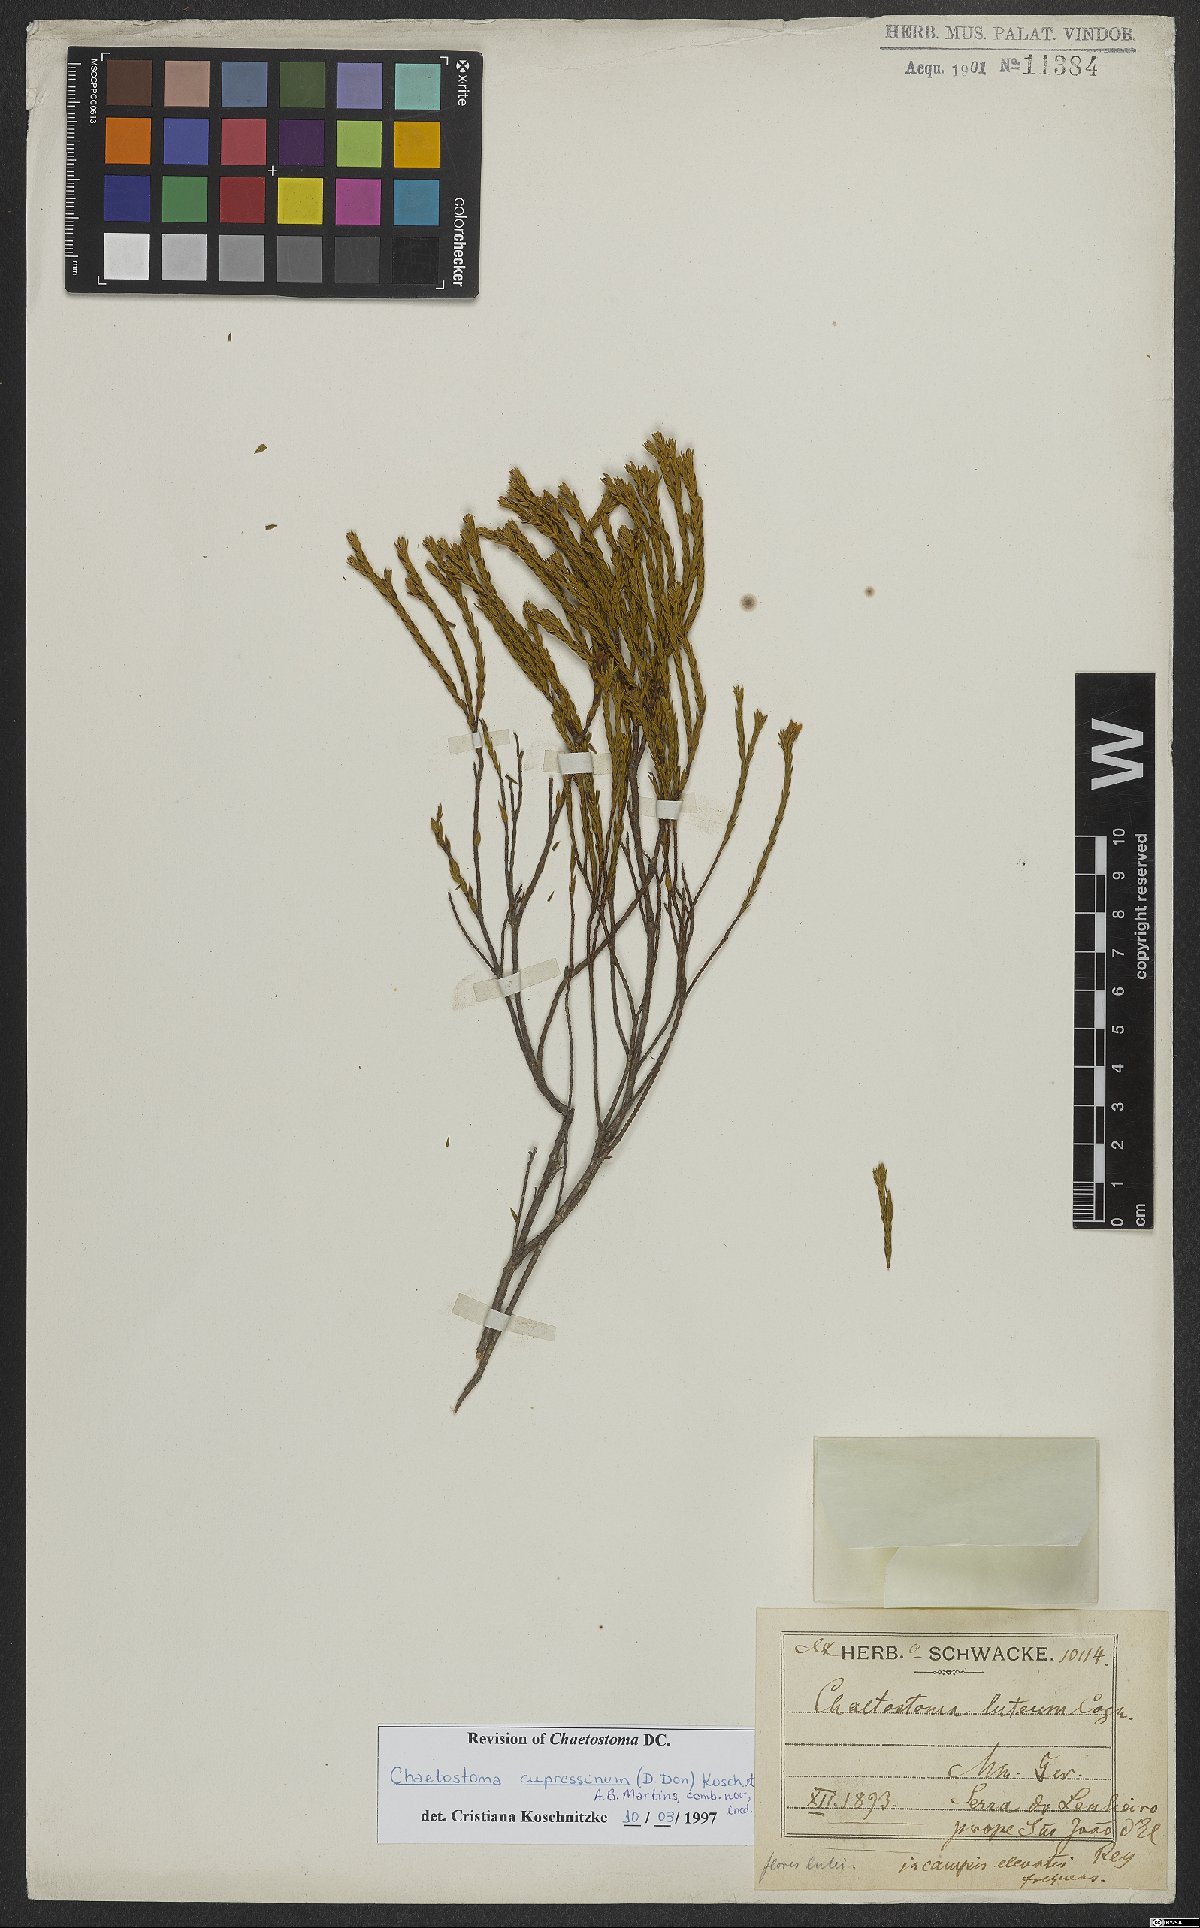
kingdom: Plantae
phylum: Tracheophyta
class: Magnoliopsida
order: Myrtales
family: Melastomataceae
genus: Microlicia
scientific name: Microlicia cupressina
